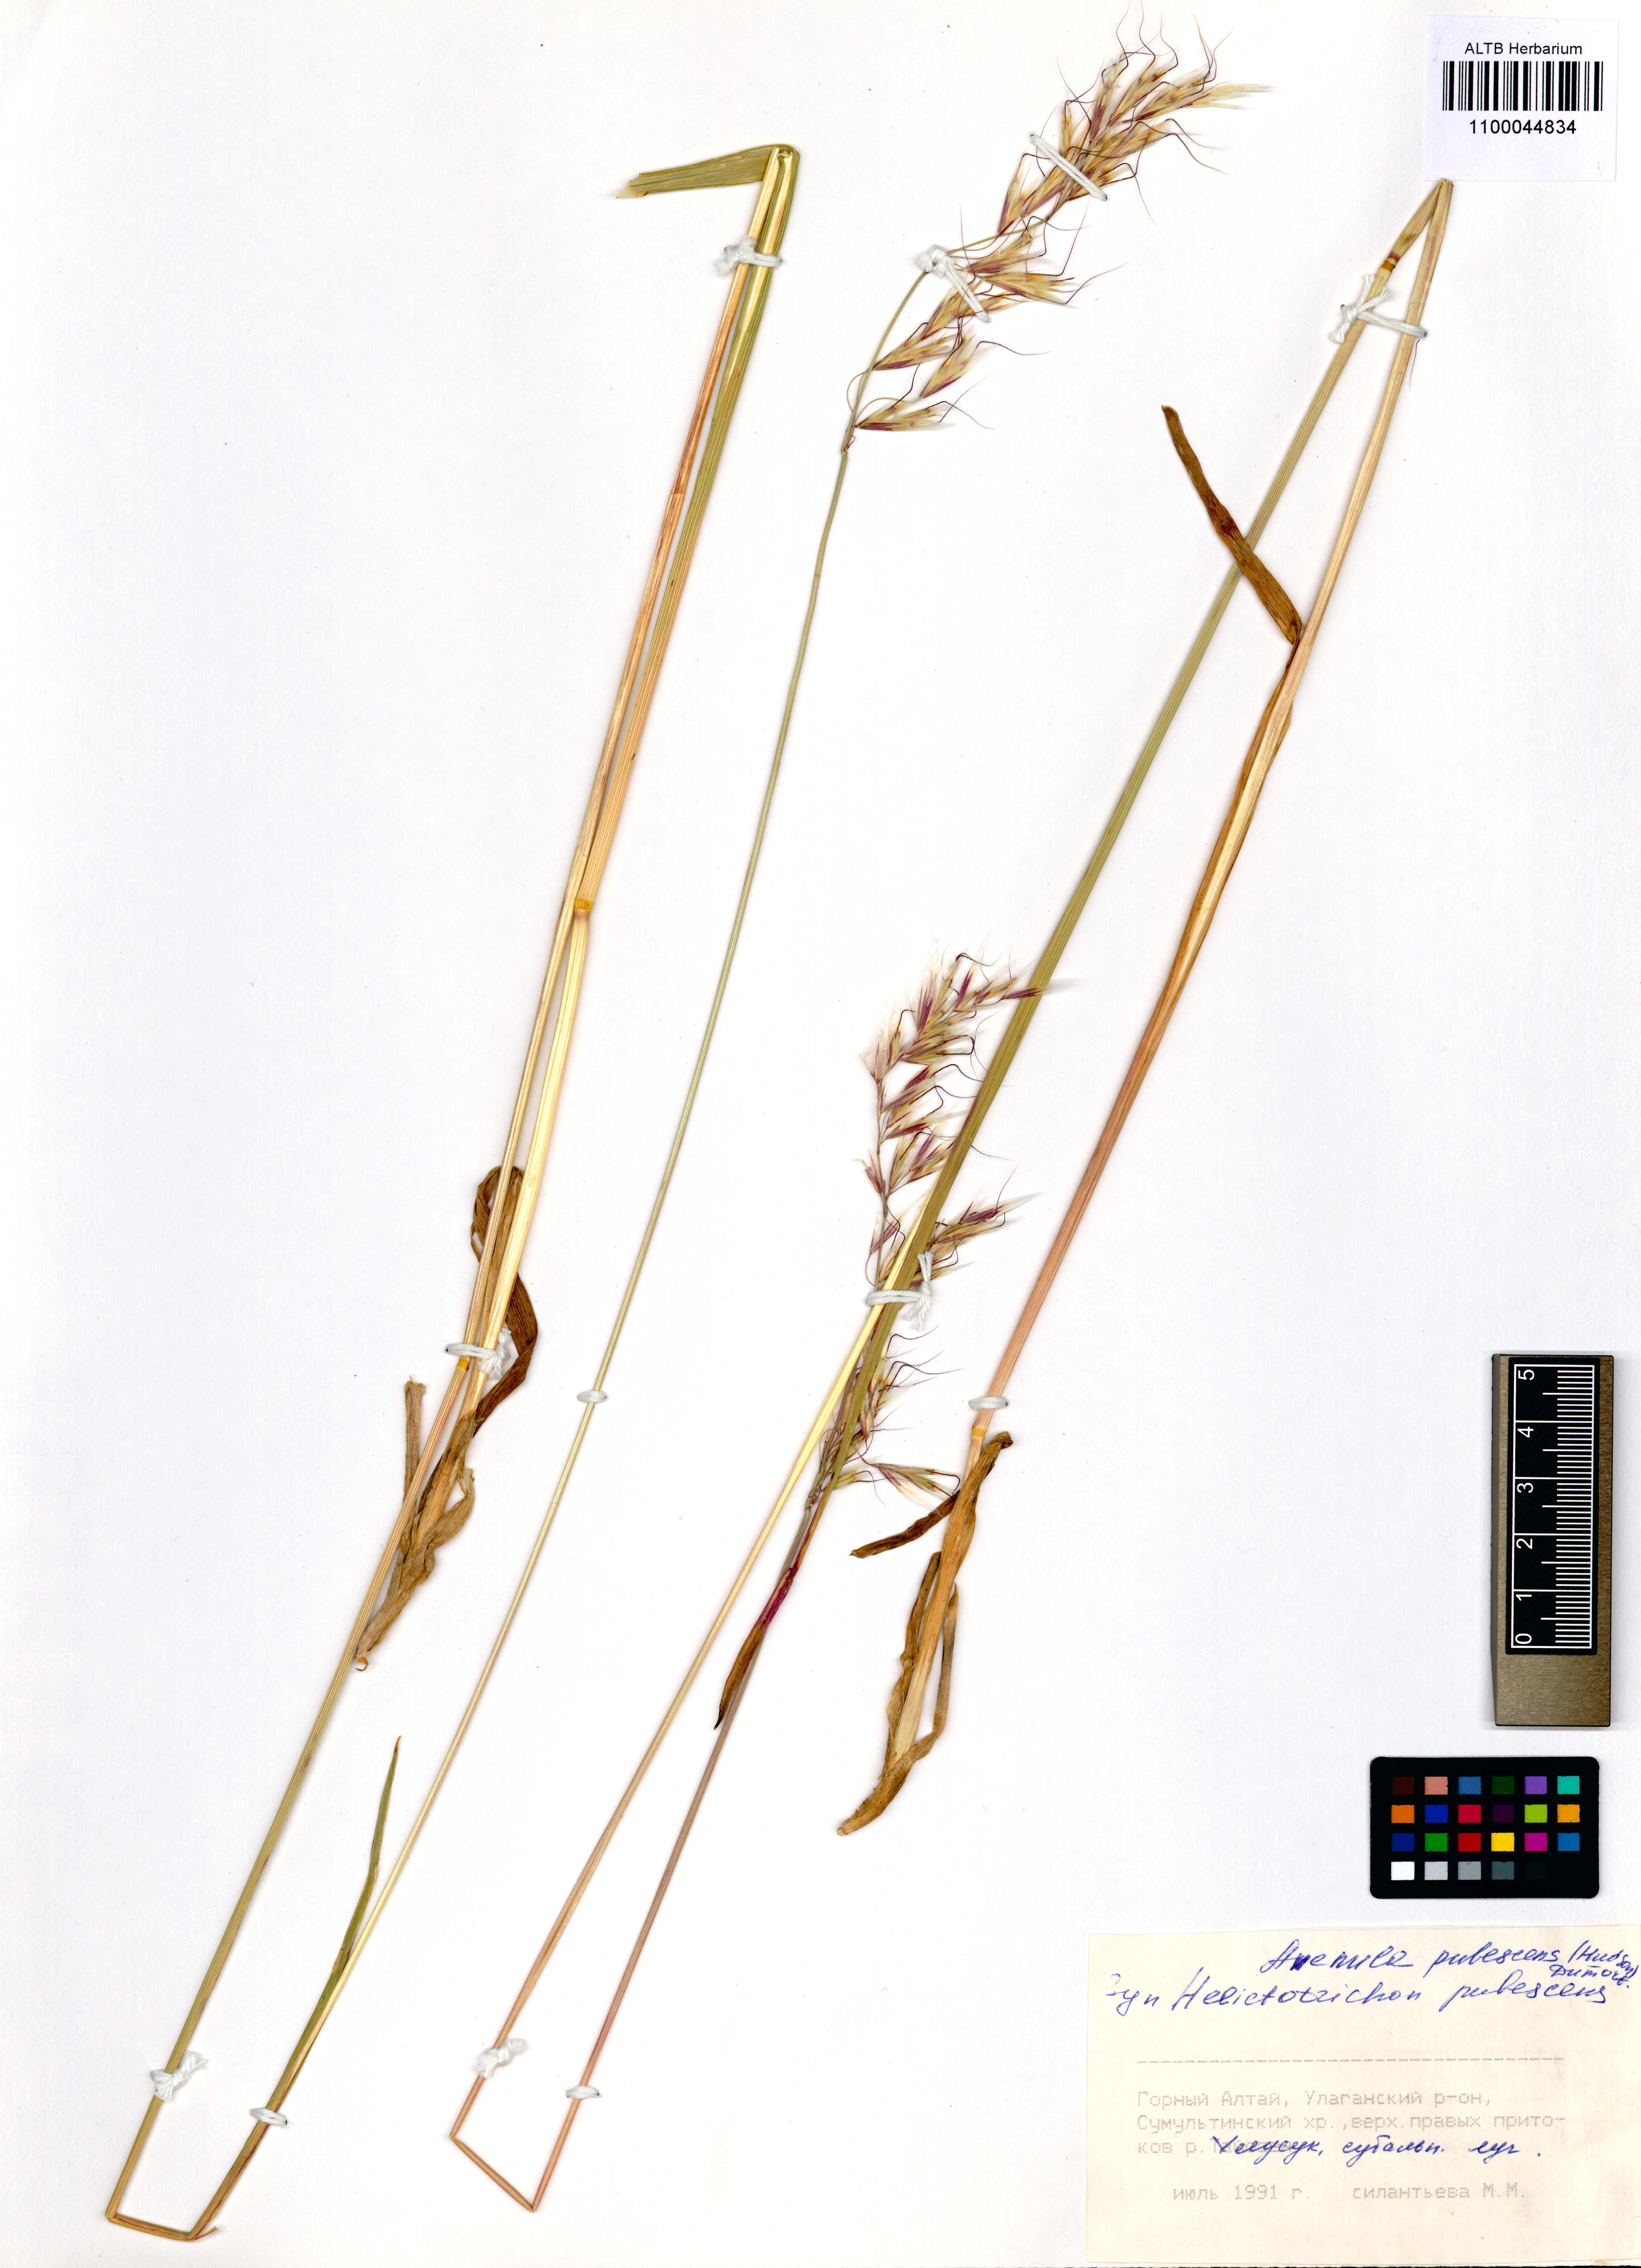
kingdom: Plantae
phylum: Tracheophyta
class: Liliopsida
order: Poales
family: Poaceae
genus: Avenula
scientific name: Avenula pubescens
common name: Downy alpine oatgrass
